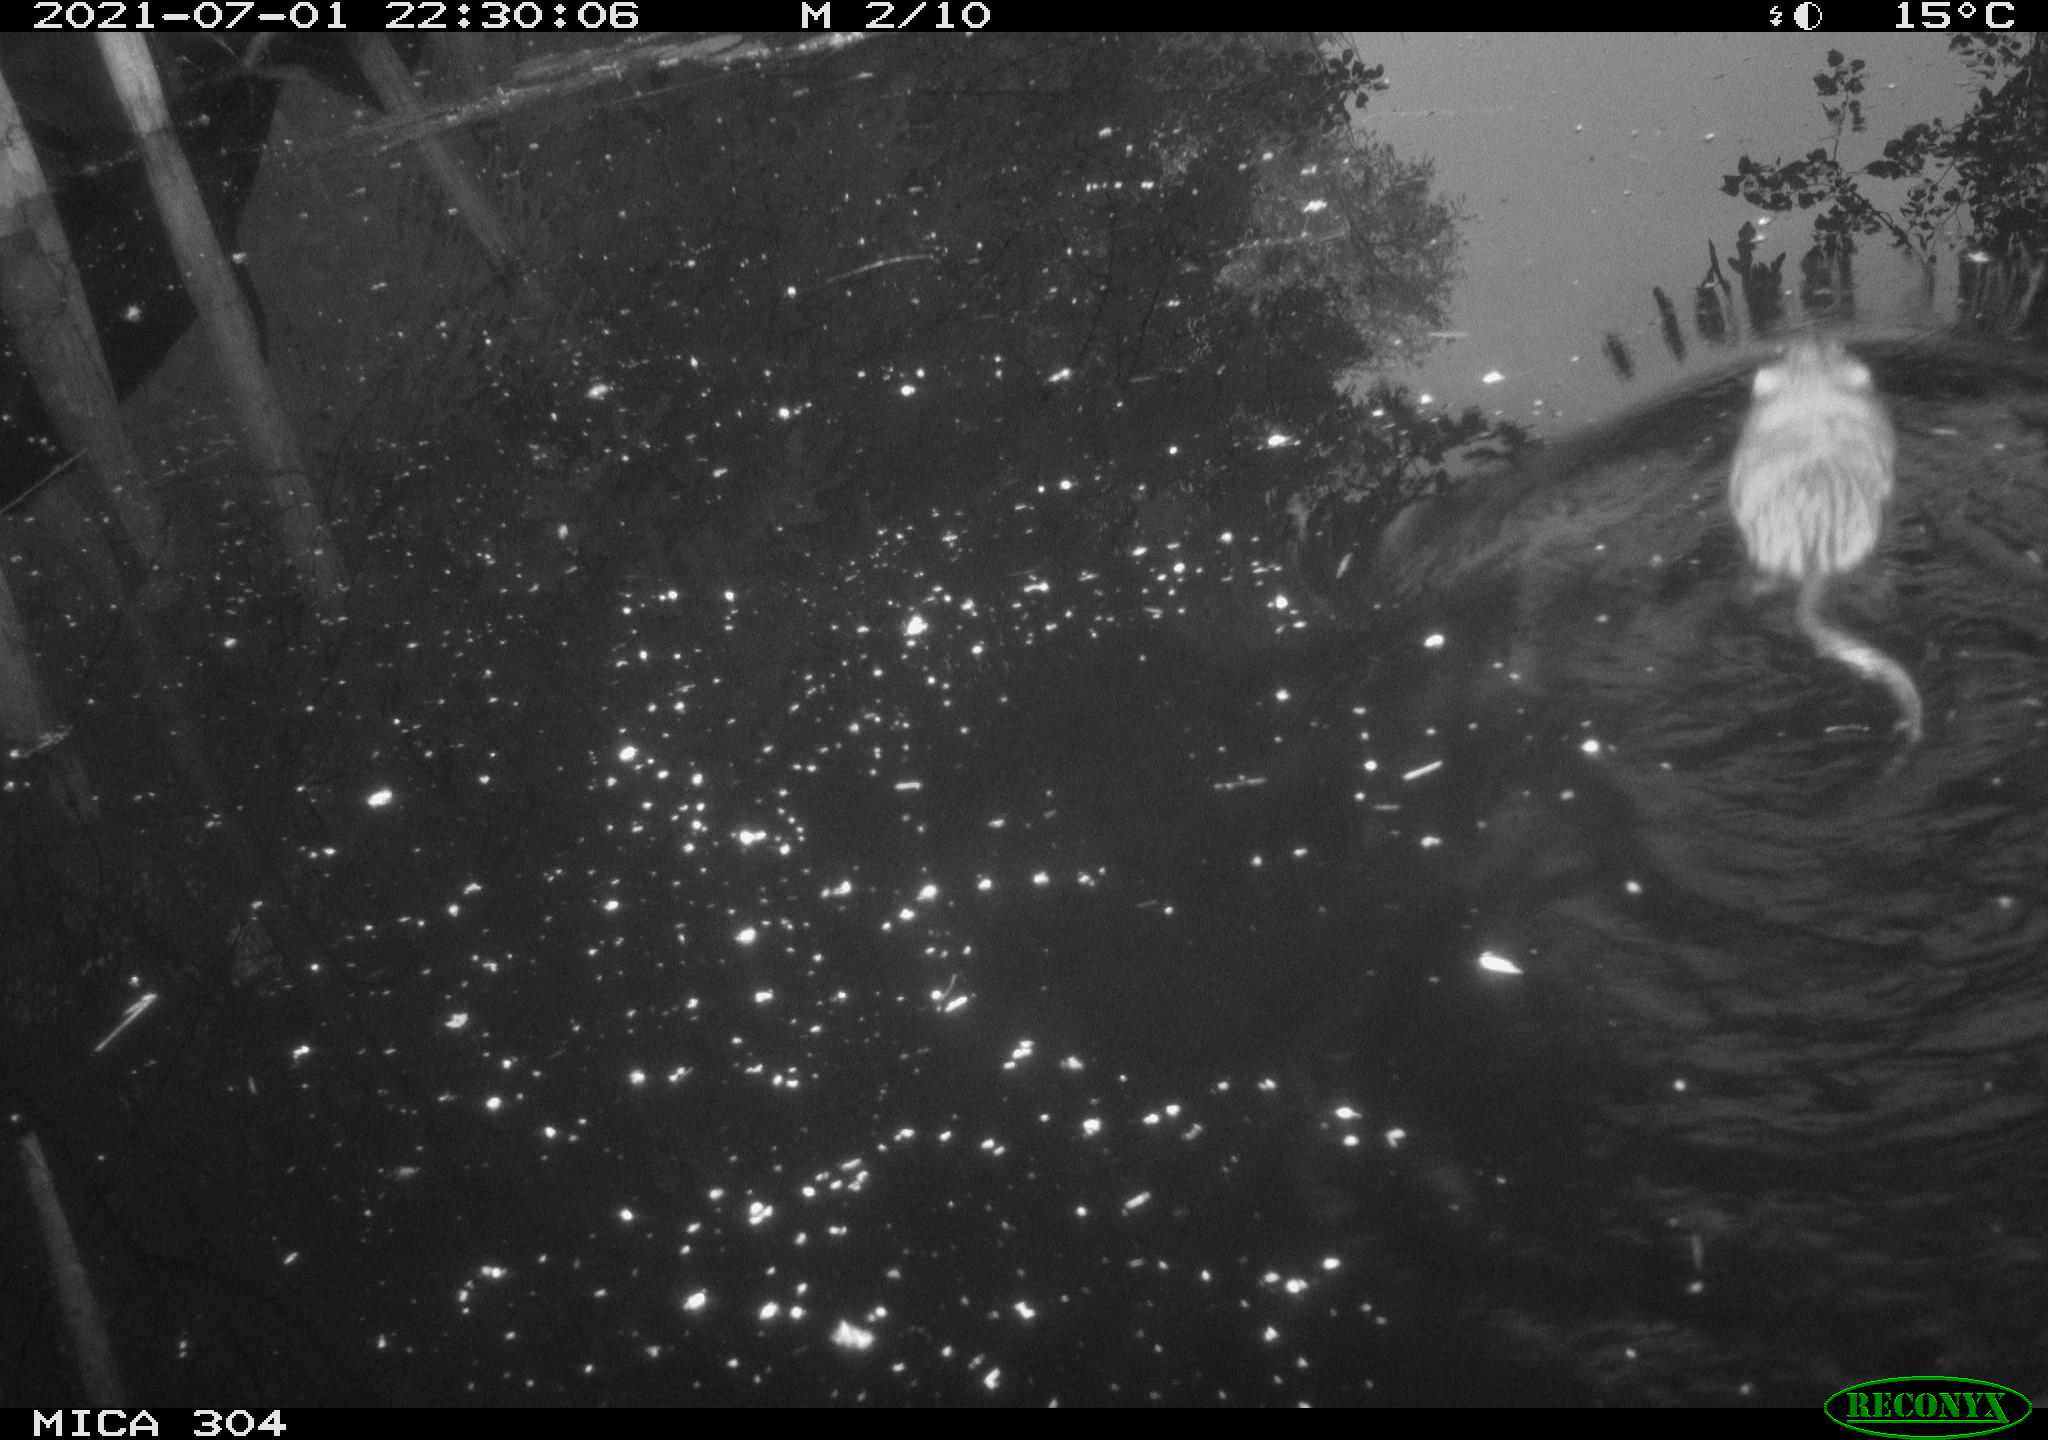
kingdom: Animalia
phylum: Chordata
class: Mammalia
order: Rodentia
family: Cricetidae
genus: Ondatra
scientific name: Ondatra zibethicus
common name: Muskrat
